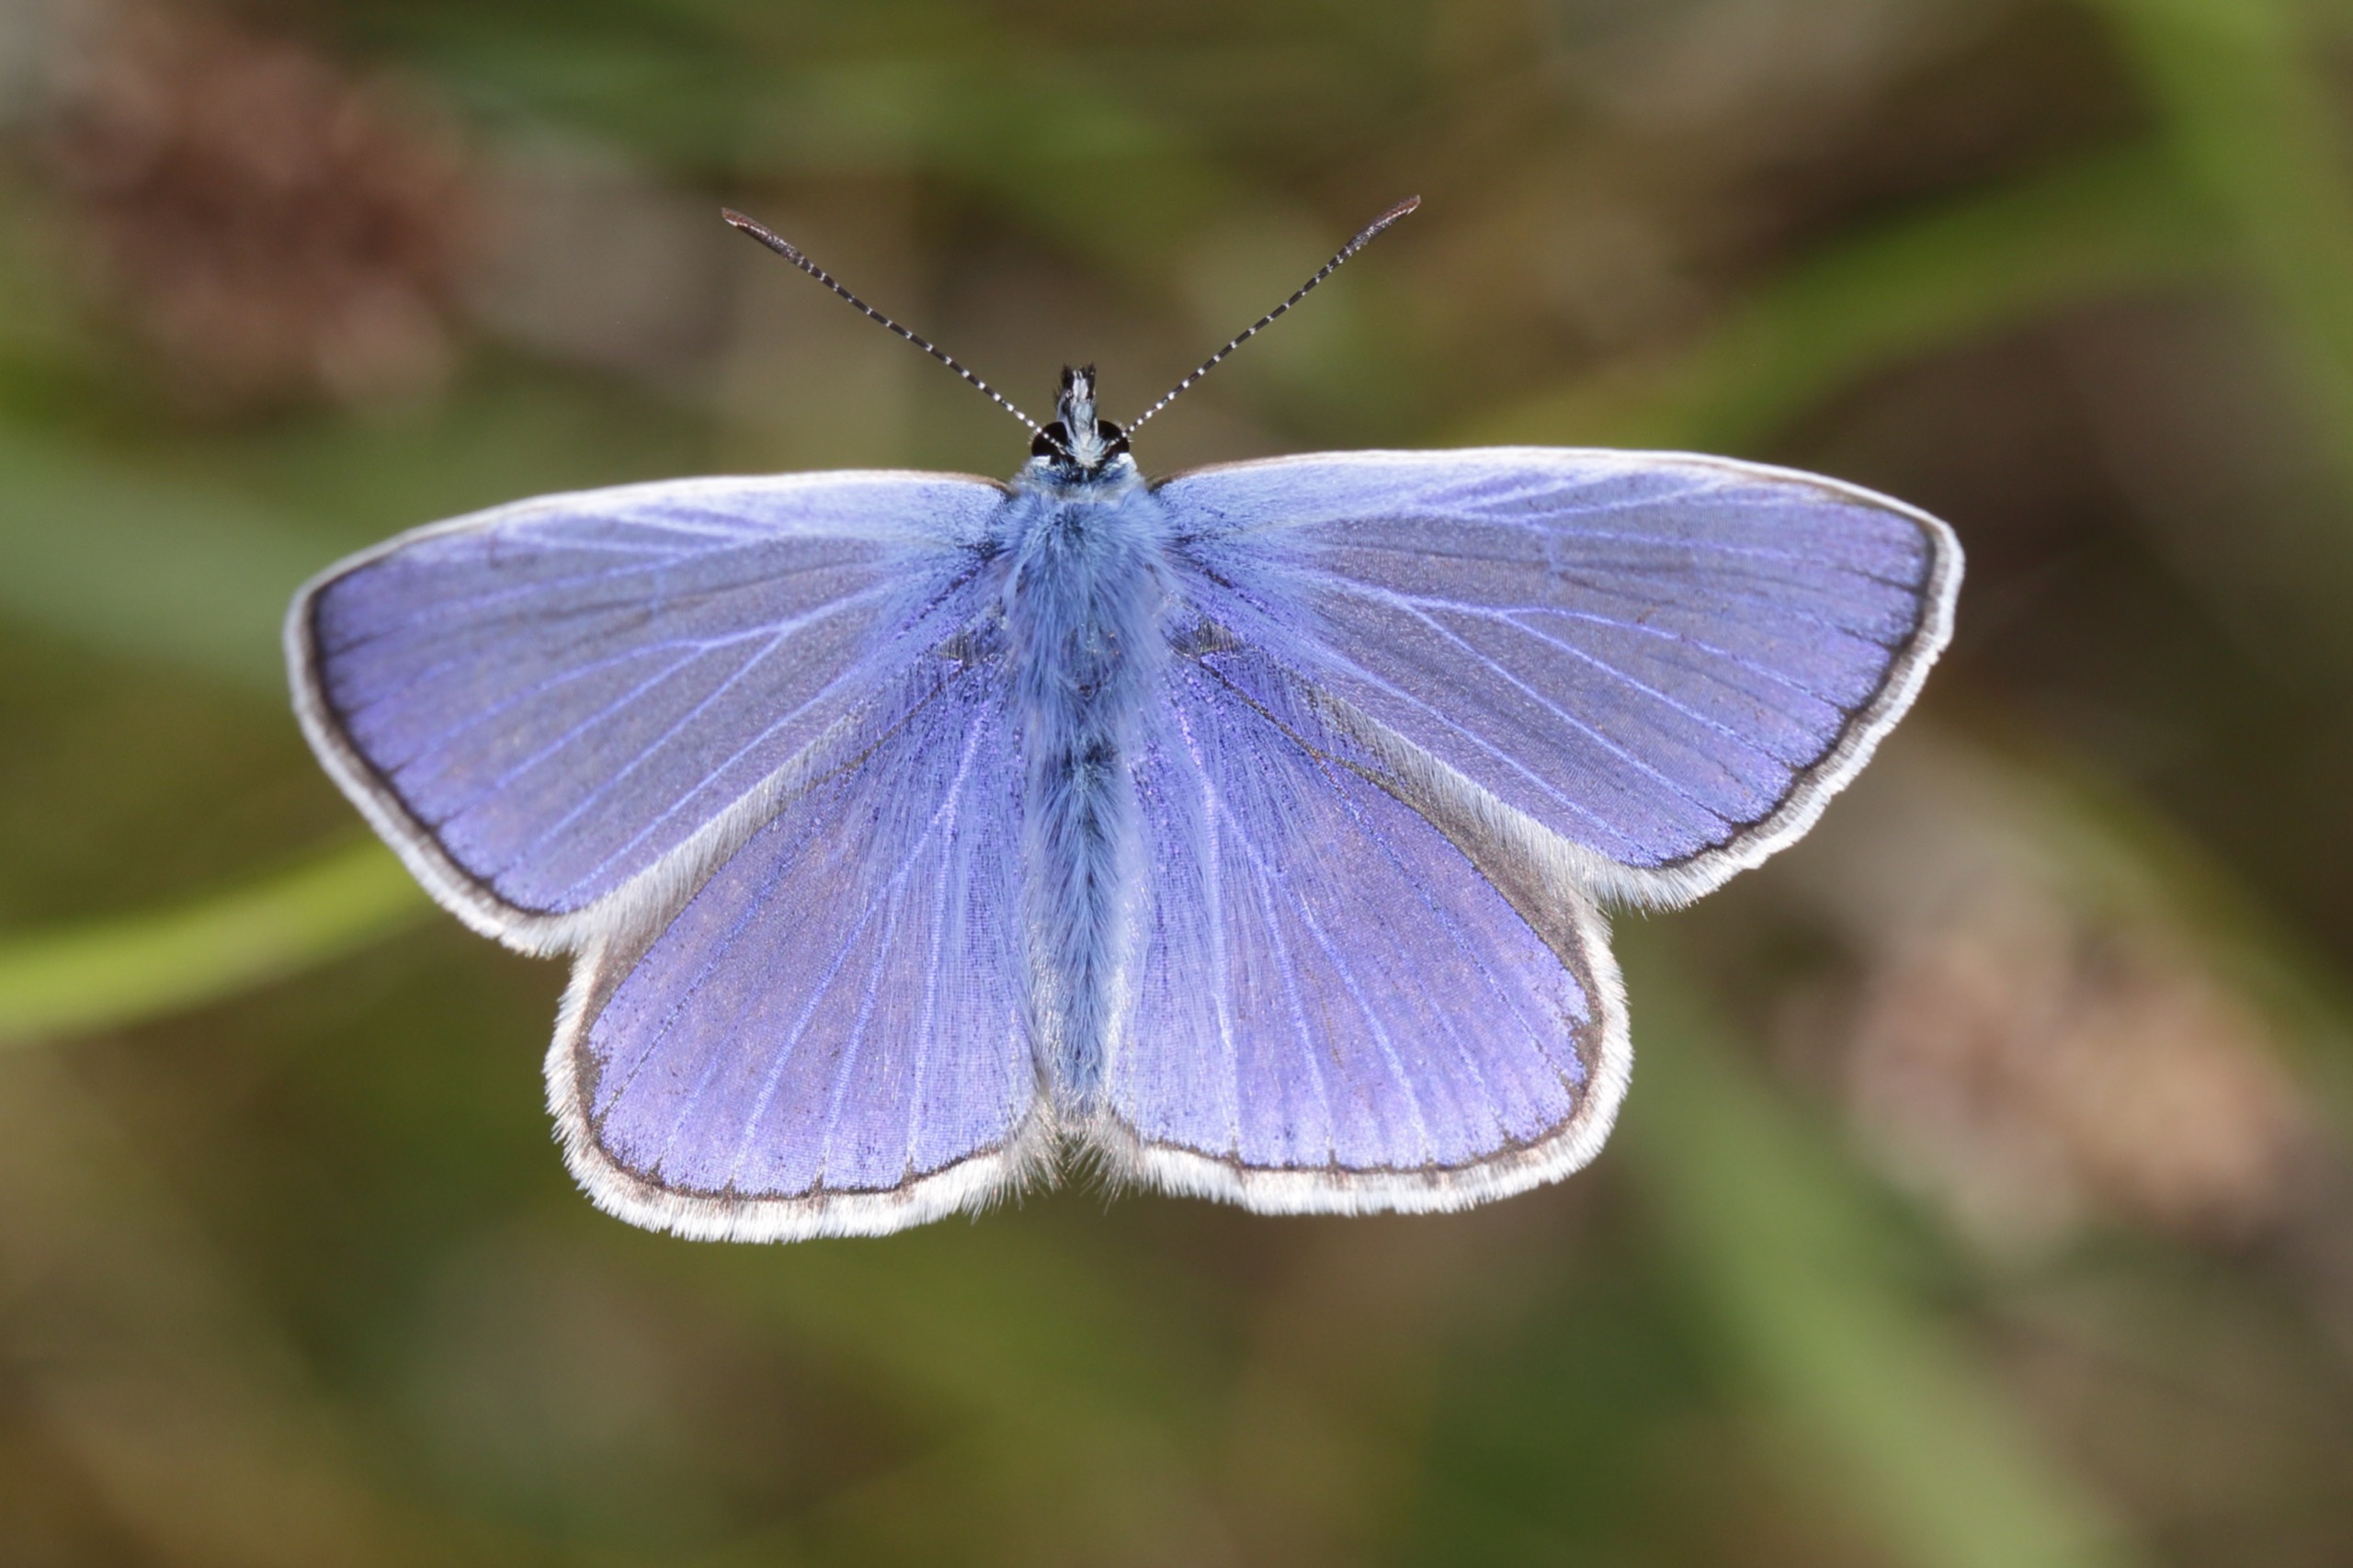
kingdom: Animalia
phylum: Arthropoda
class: Insecta
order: Lepidoptera
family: Lycaenidae
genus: Polyommatus
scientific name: Polyommatus icarus
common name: Almindelig blåfugl
